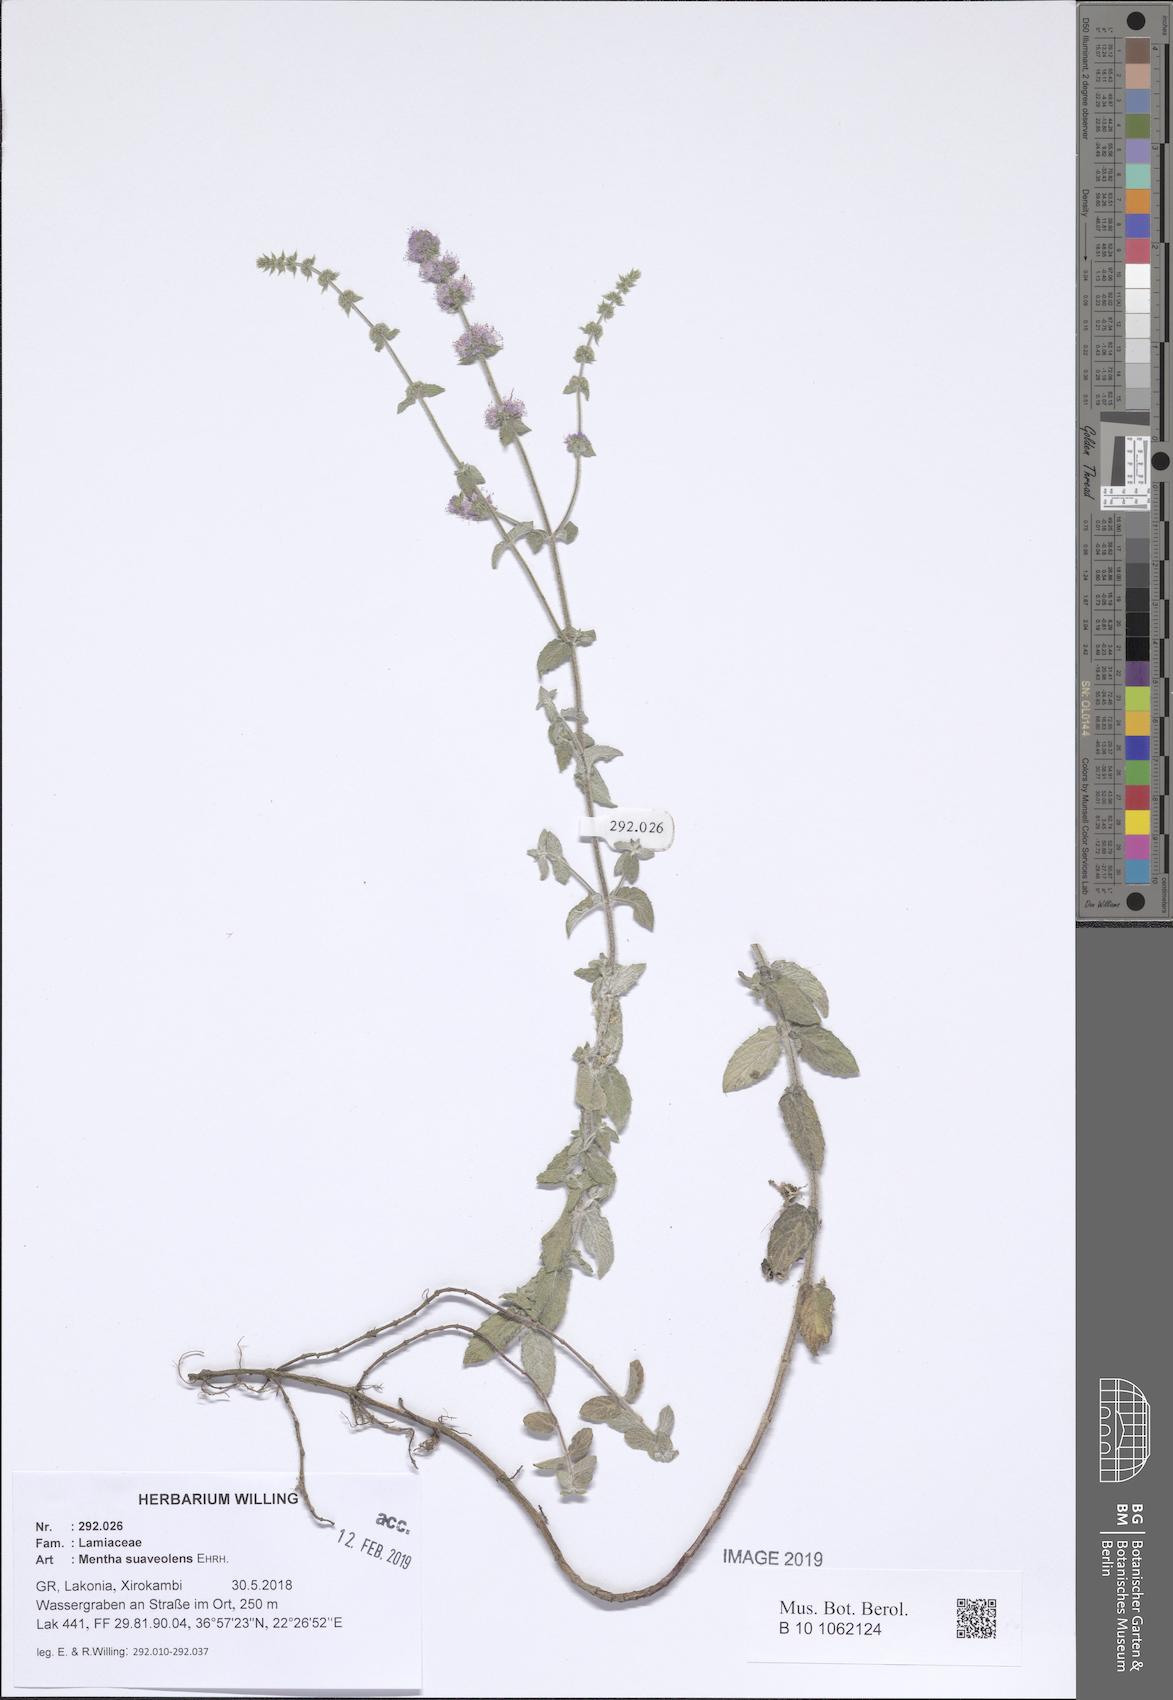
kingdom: Plantae
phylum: Tracheophyta
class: Magnoliopsida
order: Lamiales
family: Lamiaceae
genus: Mentha
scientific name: Mentha suaveolens
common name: Apple mint
